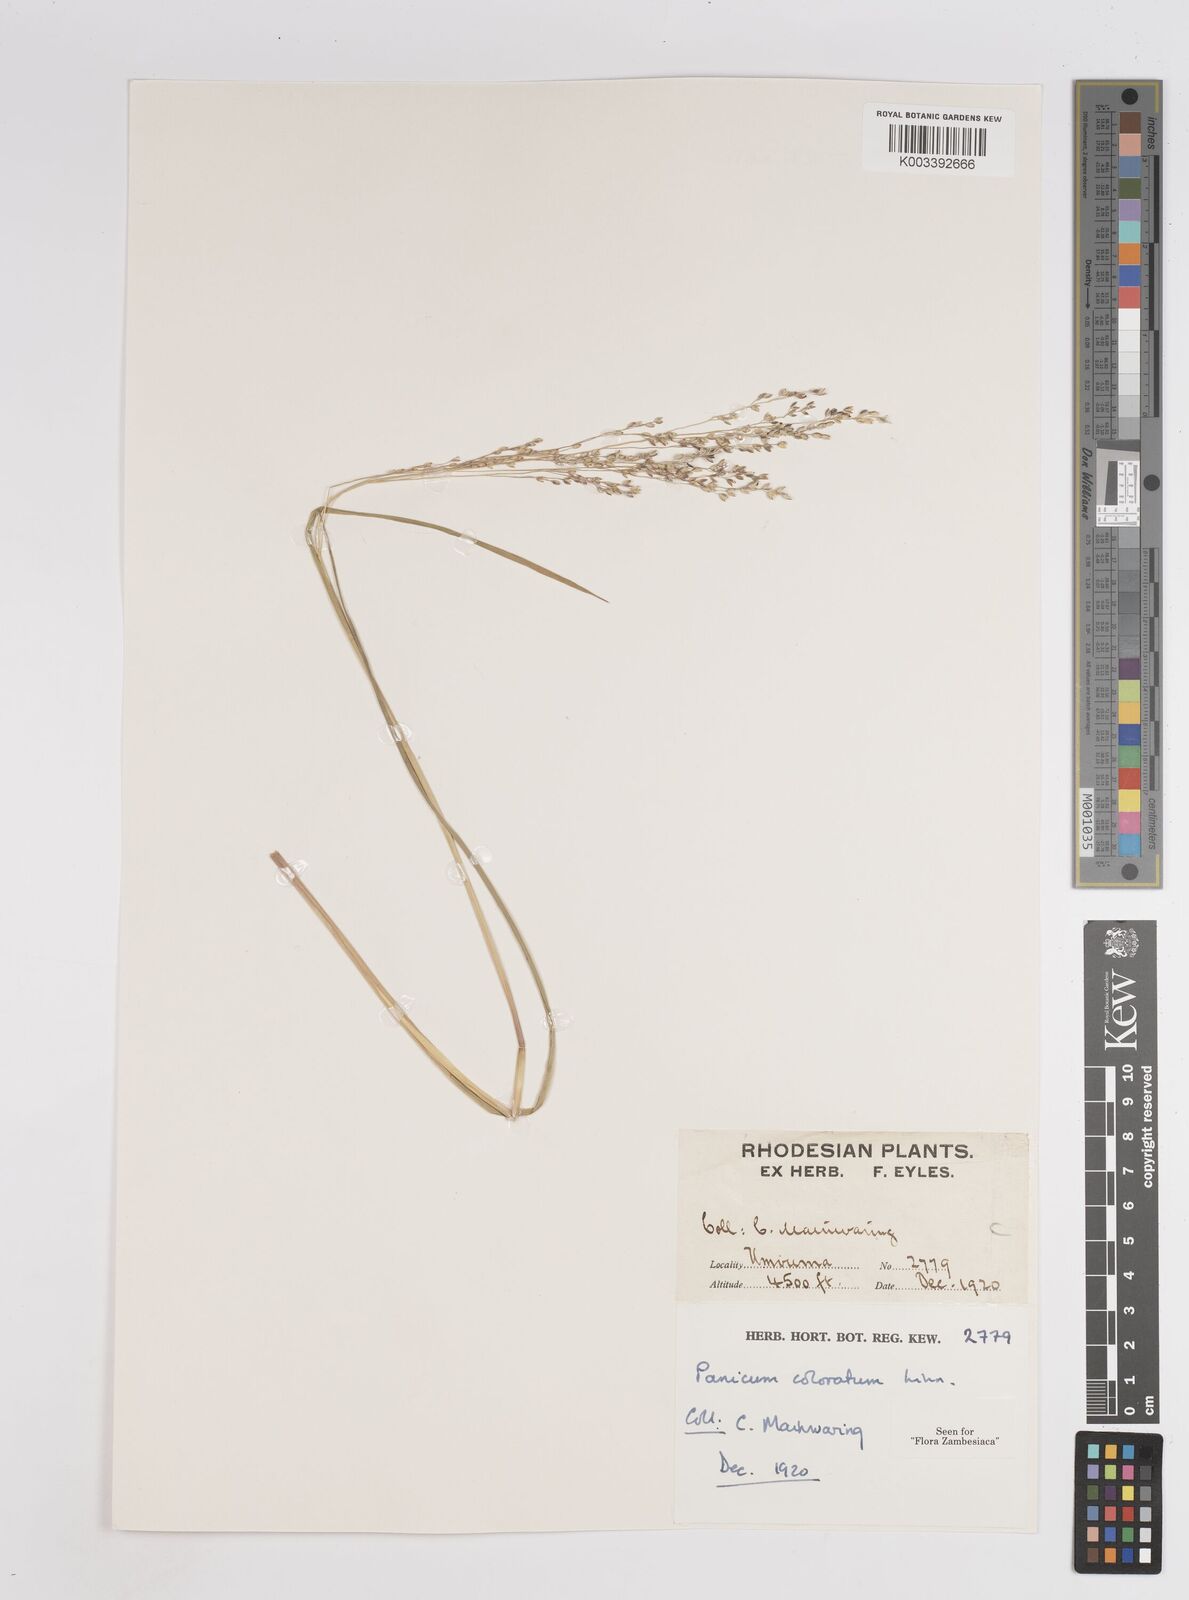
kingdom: Plantae
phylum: Tracheophyta
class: Liliopsida
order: Poales
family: Poaceae
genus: Panicum
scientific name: Panicum coloratum
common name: Kleingrass
